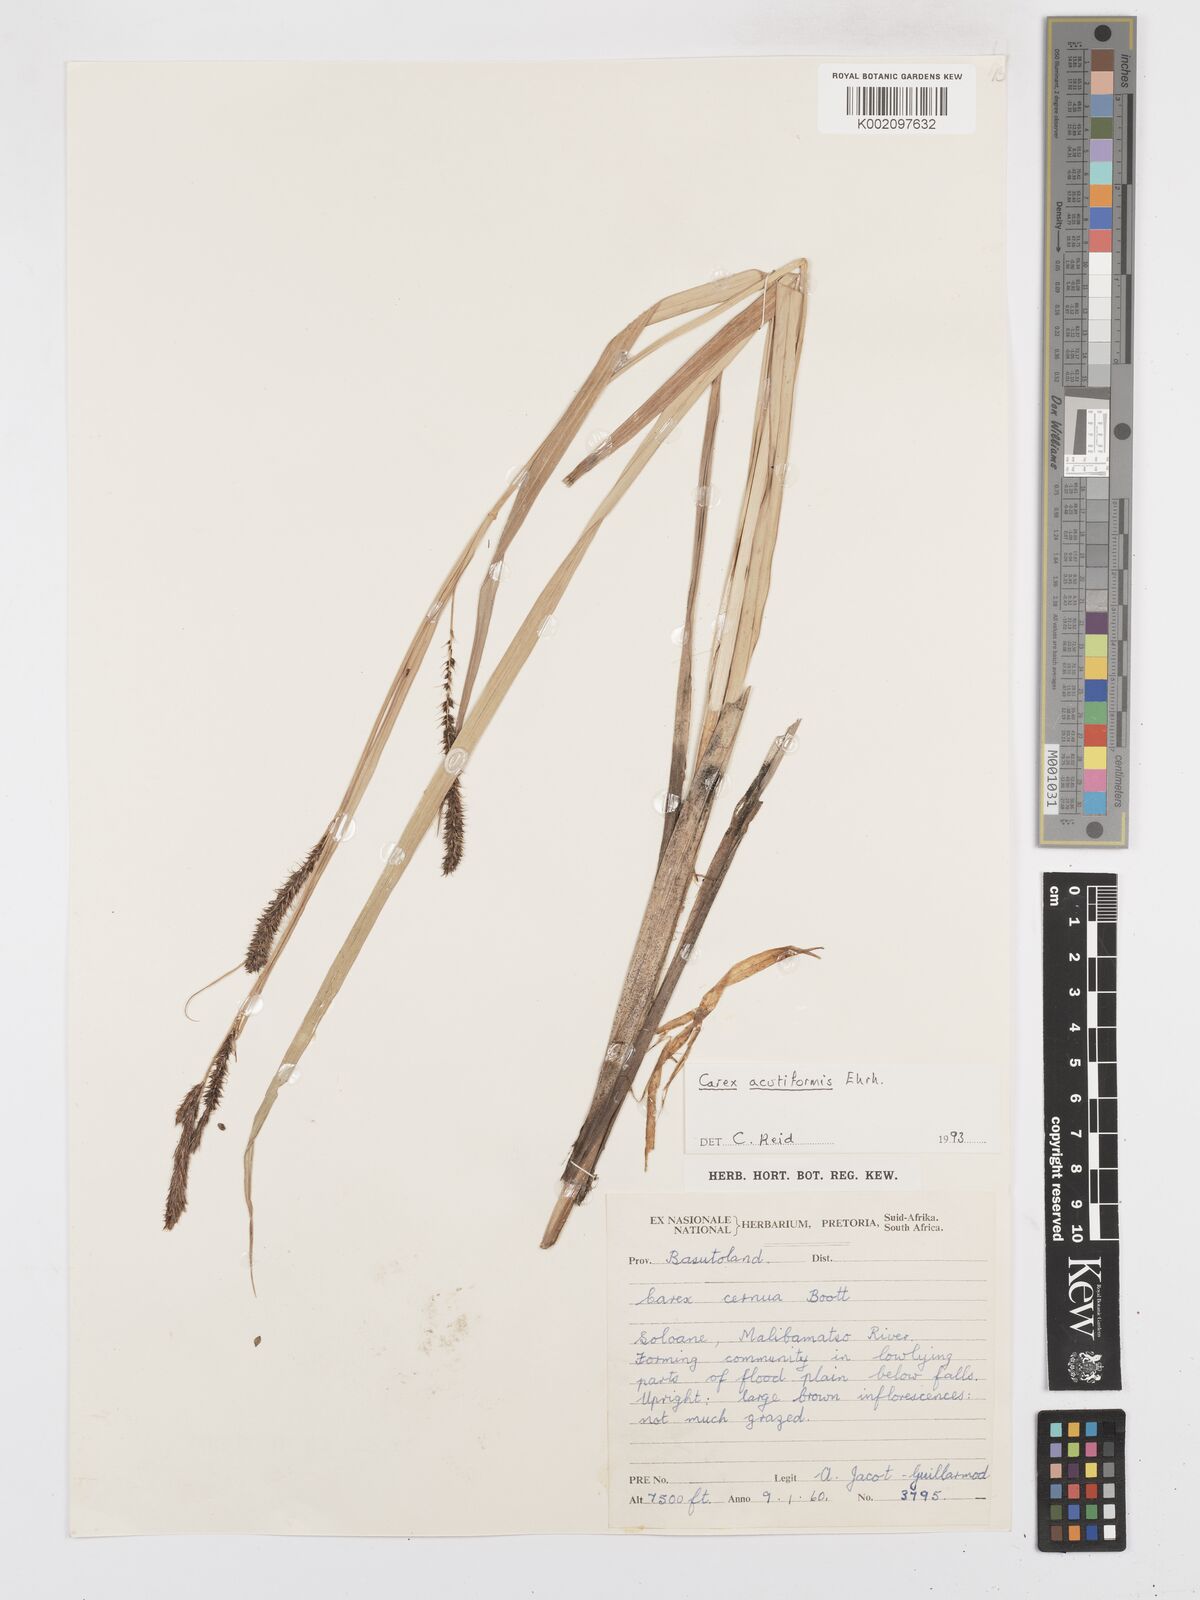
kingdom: Plantae
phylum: Tracheophyta
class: Liliopsida
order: Poales
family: Cyperaceae
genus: Carex
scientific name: Carex acutiformis
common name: Lesser pond-sedge
